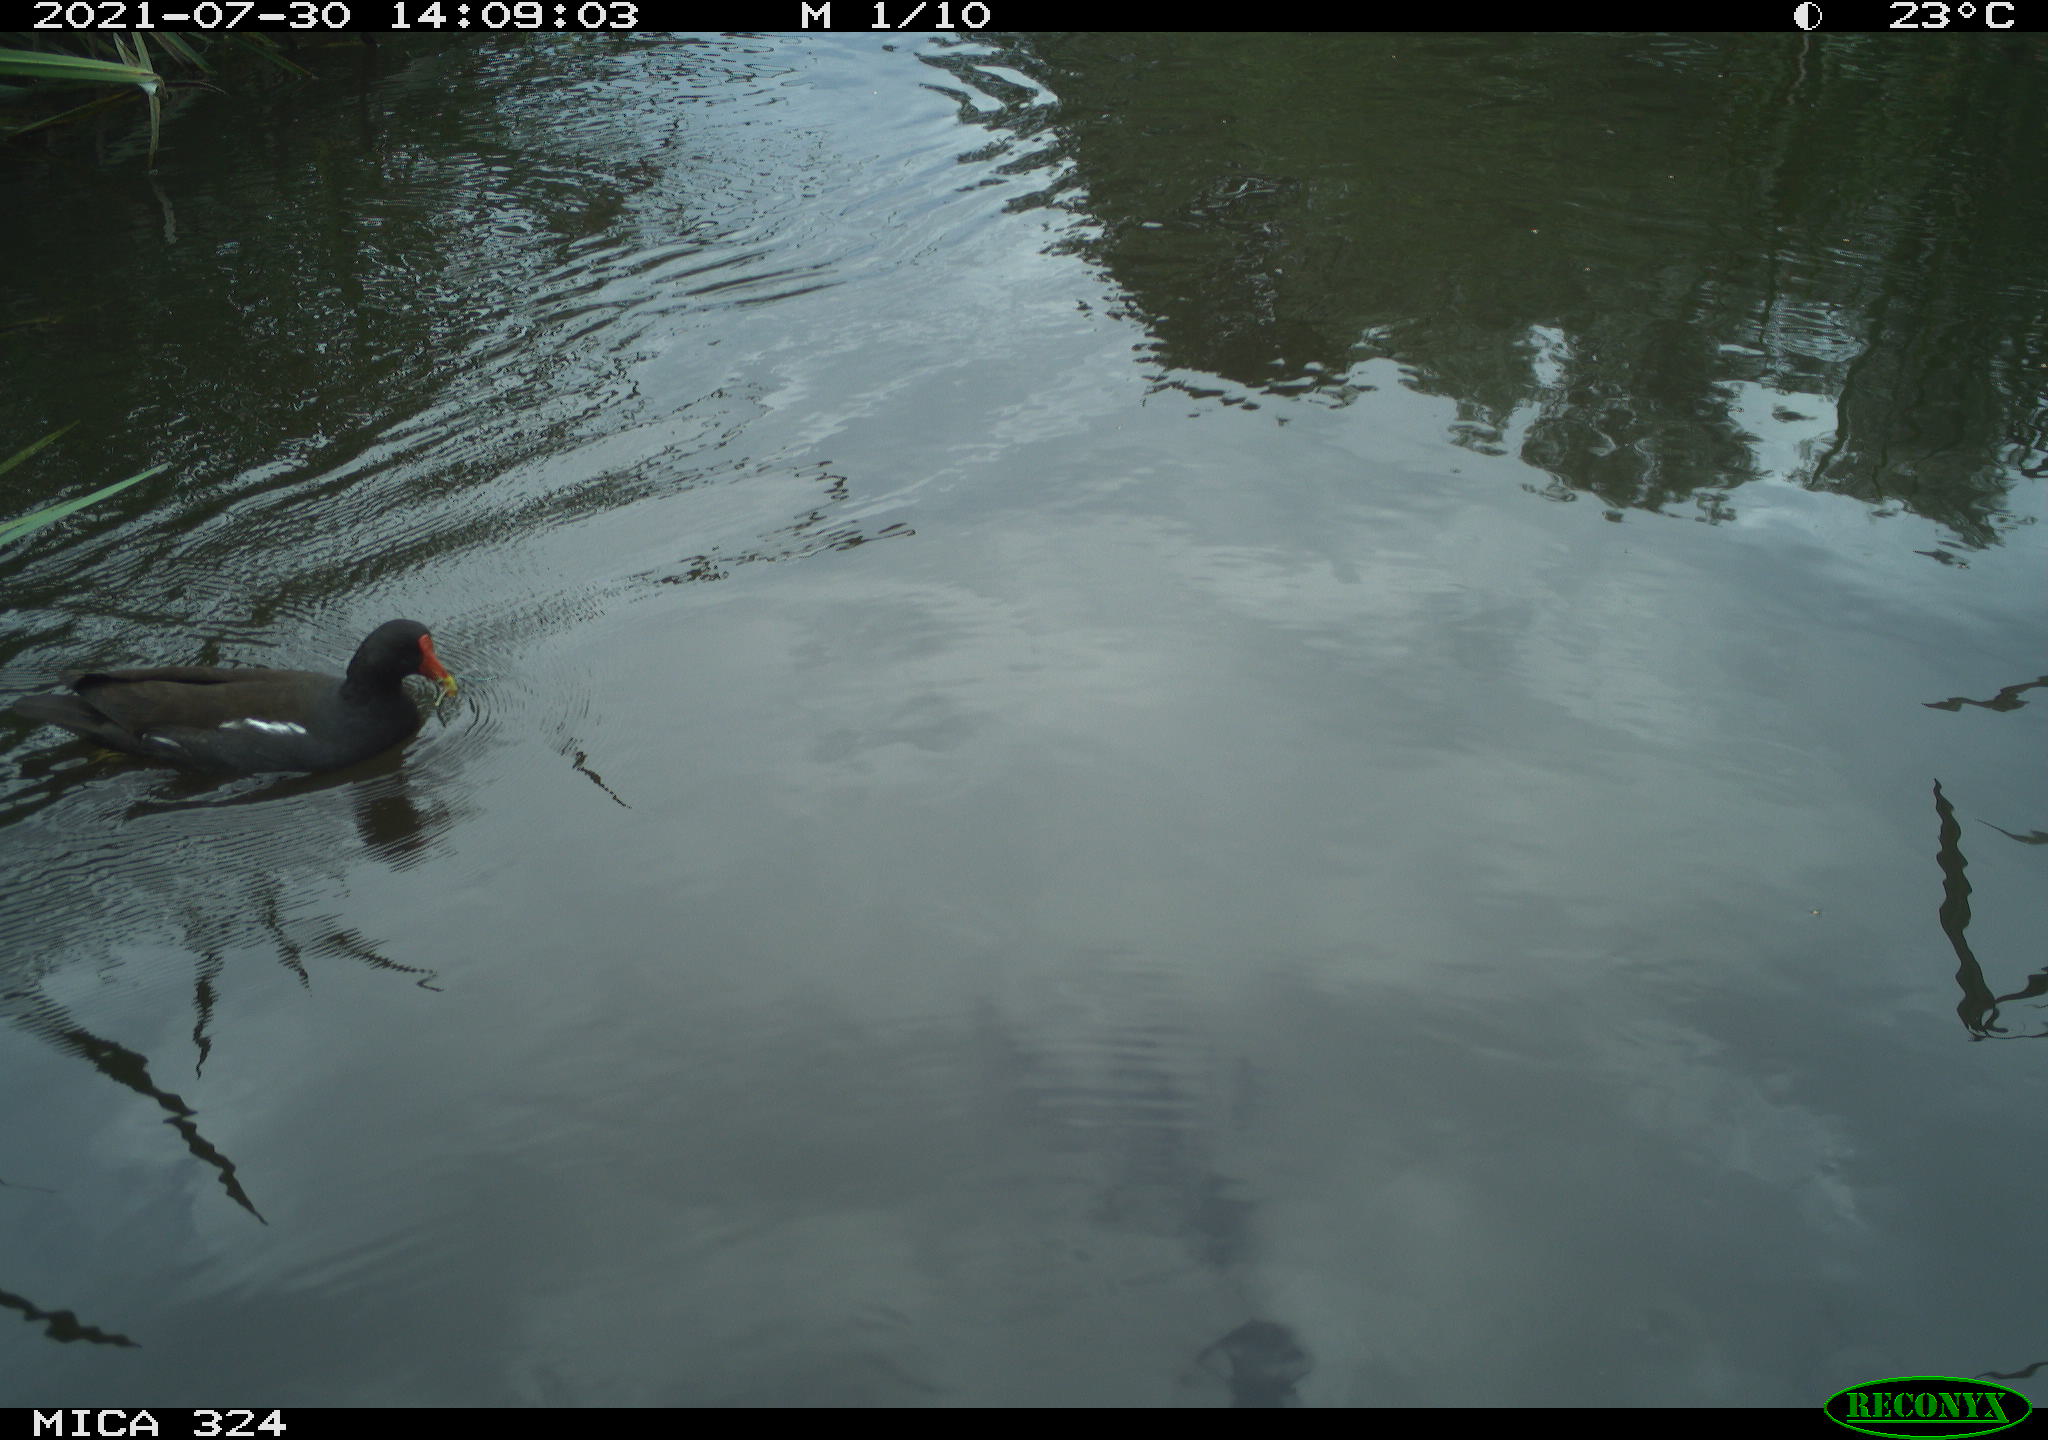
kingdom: Animalia
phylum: Chordata
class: Aves
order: Gruiformes
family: Rallidae
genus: Gallinula
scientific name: Gallinula chloropus
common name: Common moorhen
